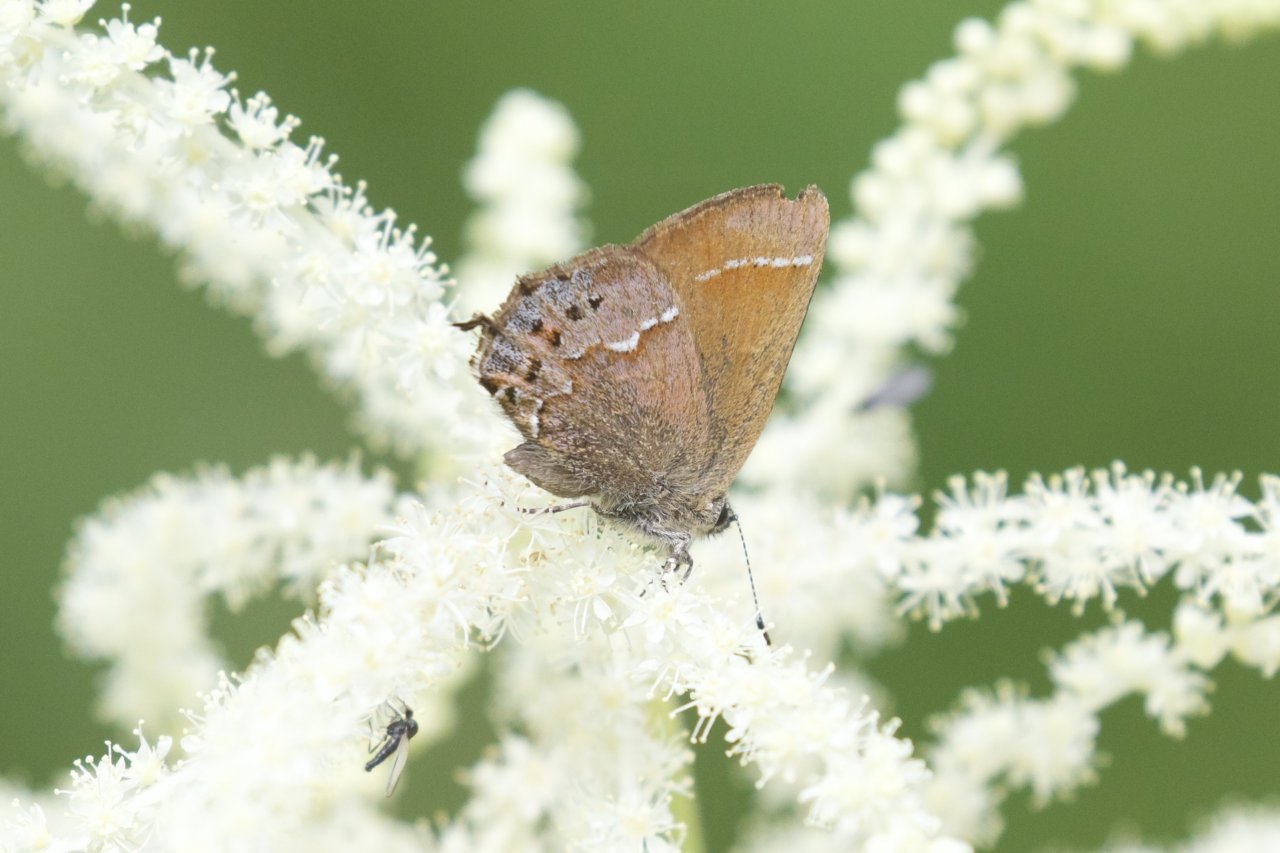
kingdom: Animalia
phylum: Arthropoda
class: Insecta
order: Lepidoptera
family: Lycaenidae
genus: Mitoura
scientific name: Mitoura gryneus
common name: Juniper Hairstreak
